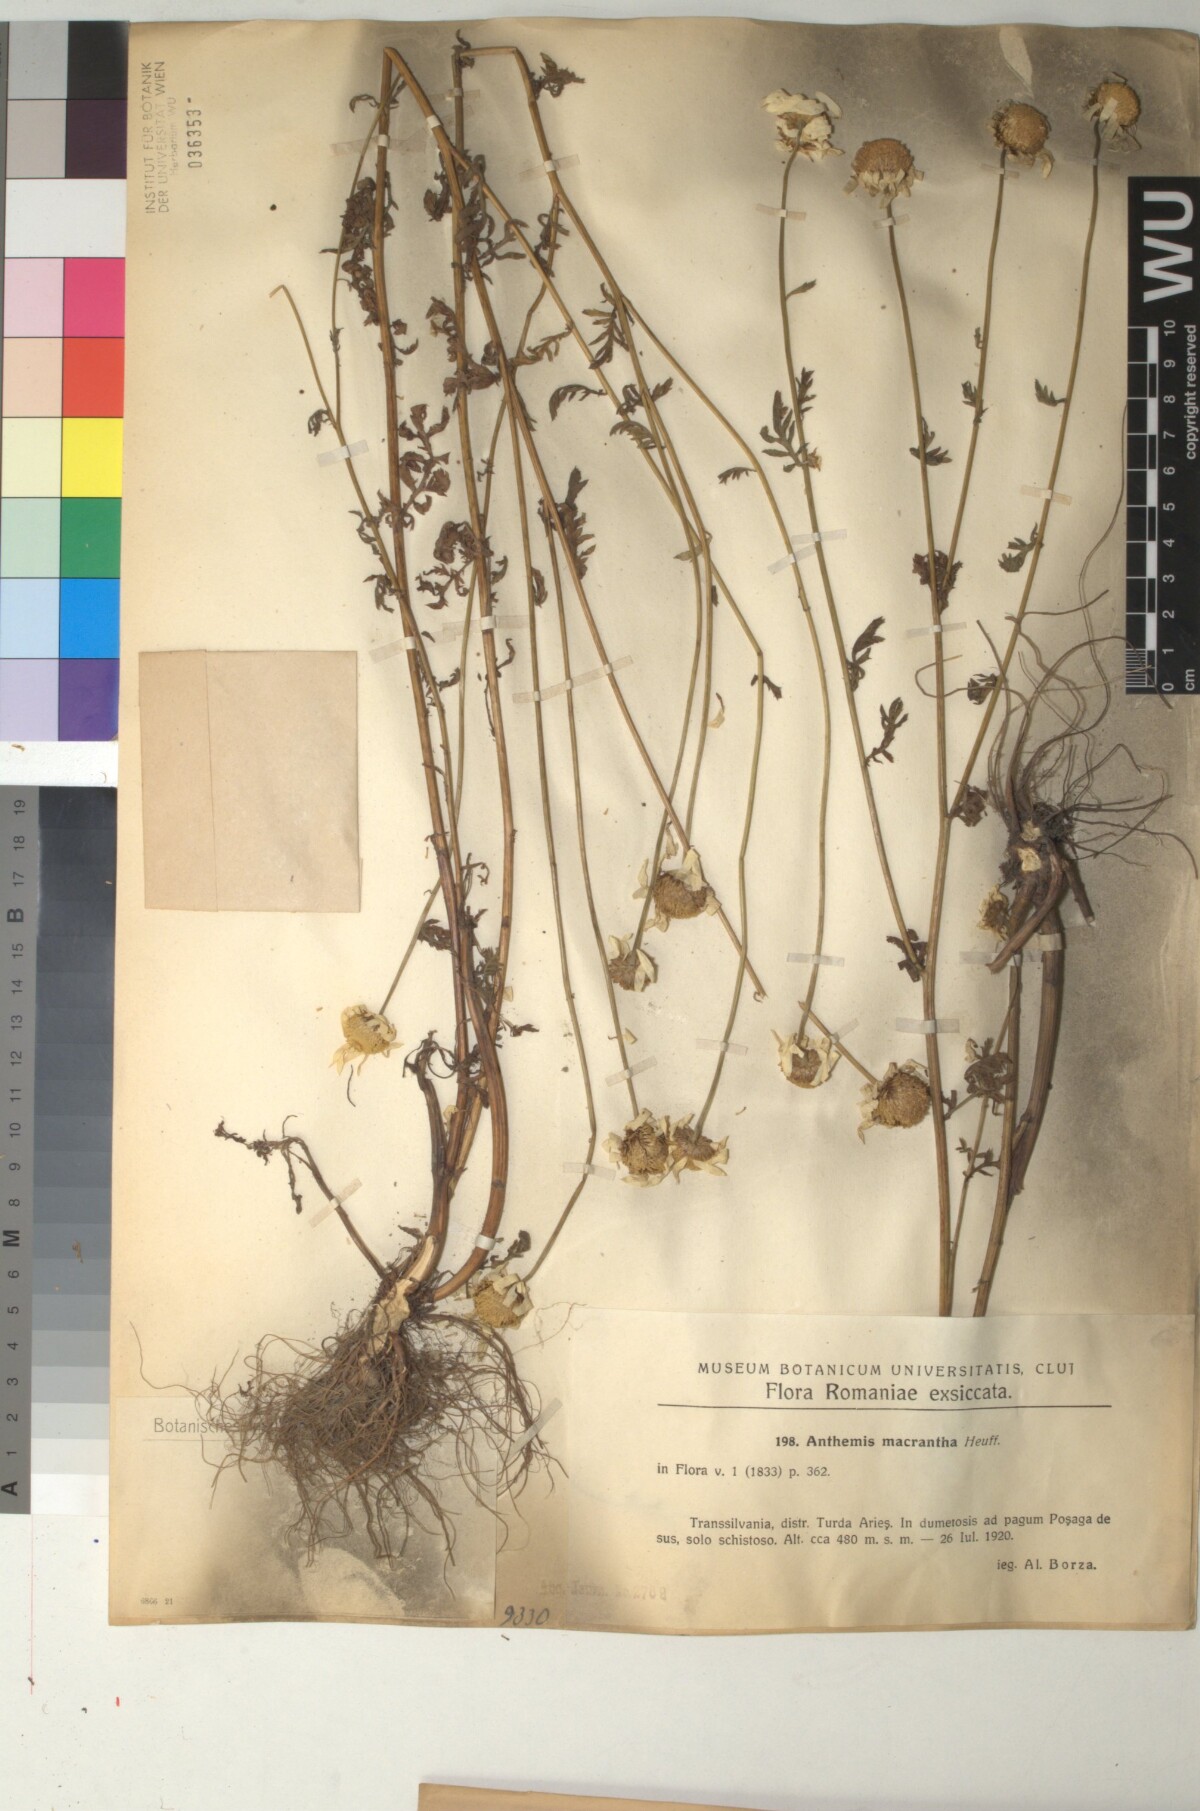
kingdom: Plantae
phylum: Tracheophyta
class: Magnoliopsida
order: Asterales
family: Asteraceae
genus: Cota
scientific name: Cota macrantha
